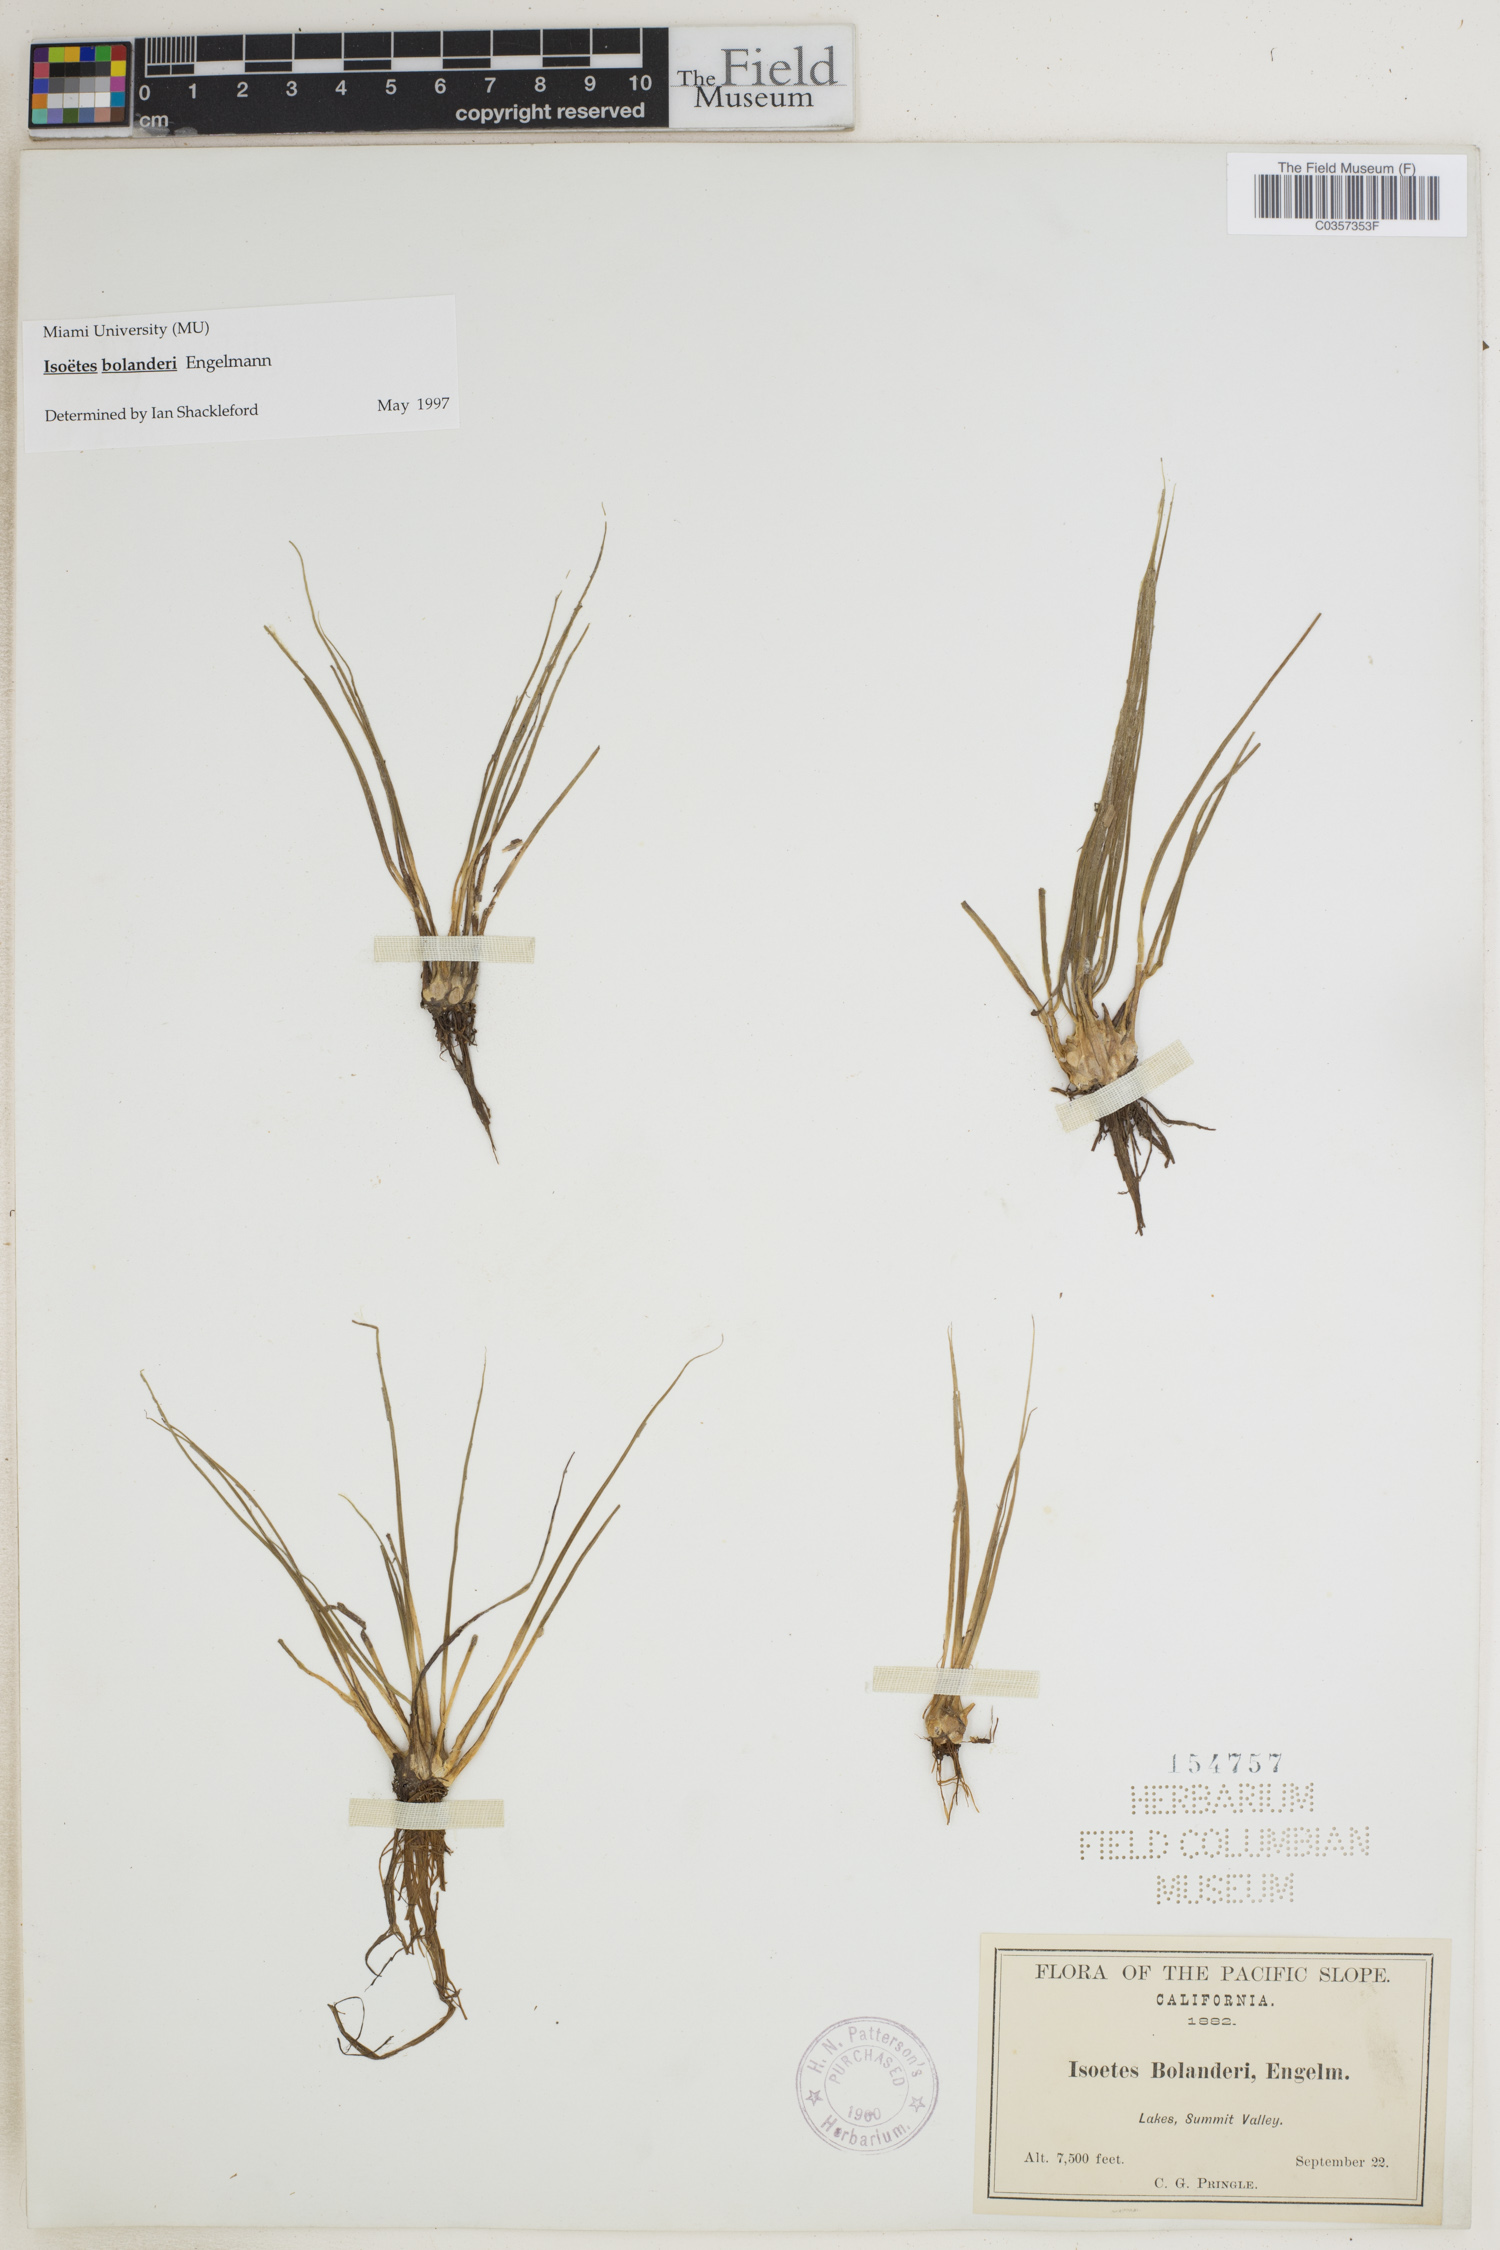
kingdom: Plantae
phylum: Tracheophyta
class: Lycopodiopsida
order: Isoetales
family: Isoetaceae
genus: Isoetes
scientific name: Isoetes bolanderi
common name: Bolander's quillwort
